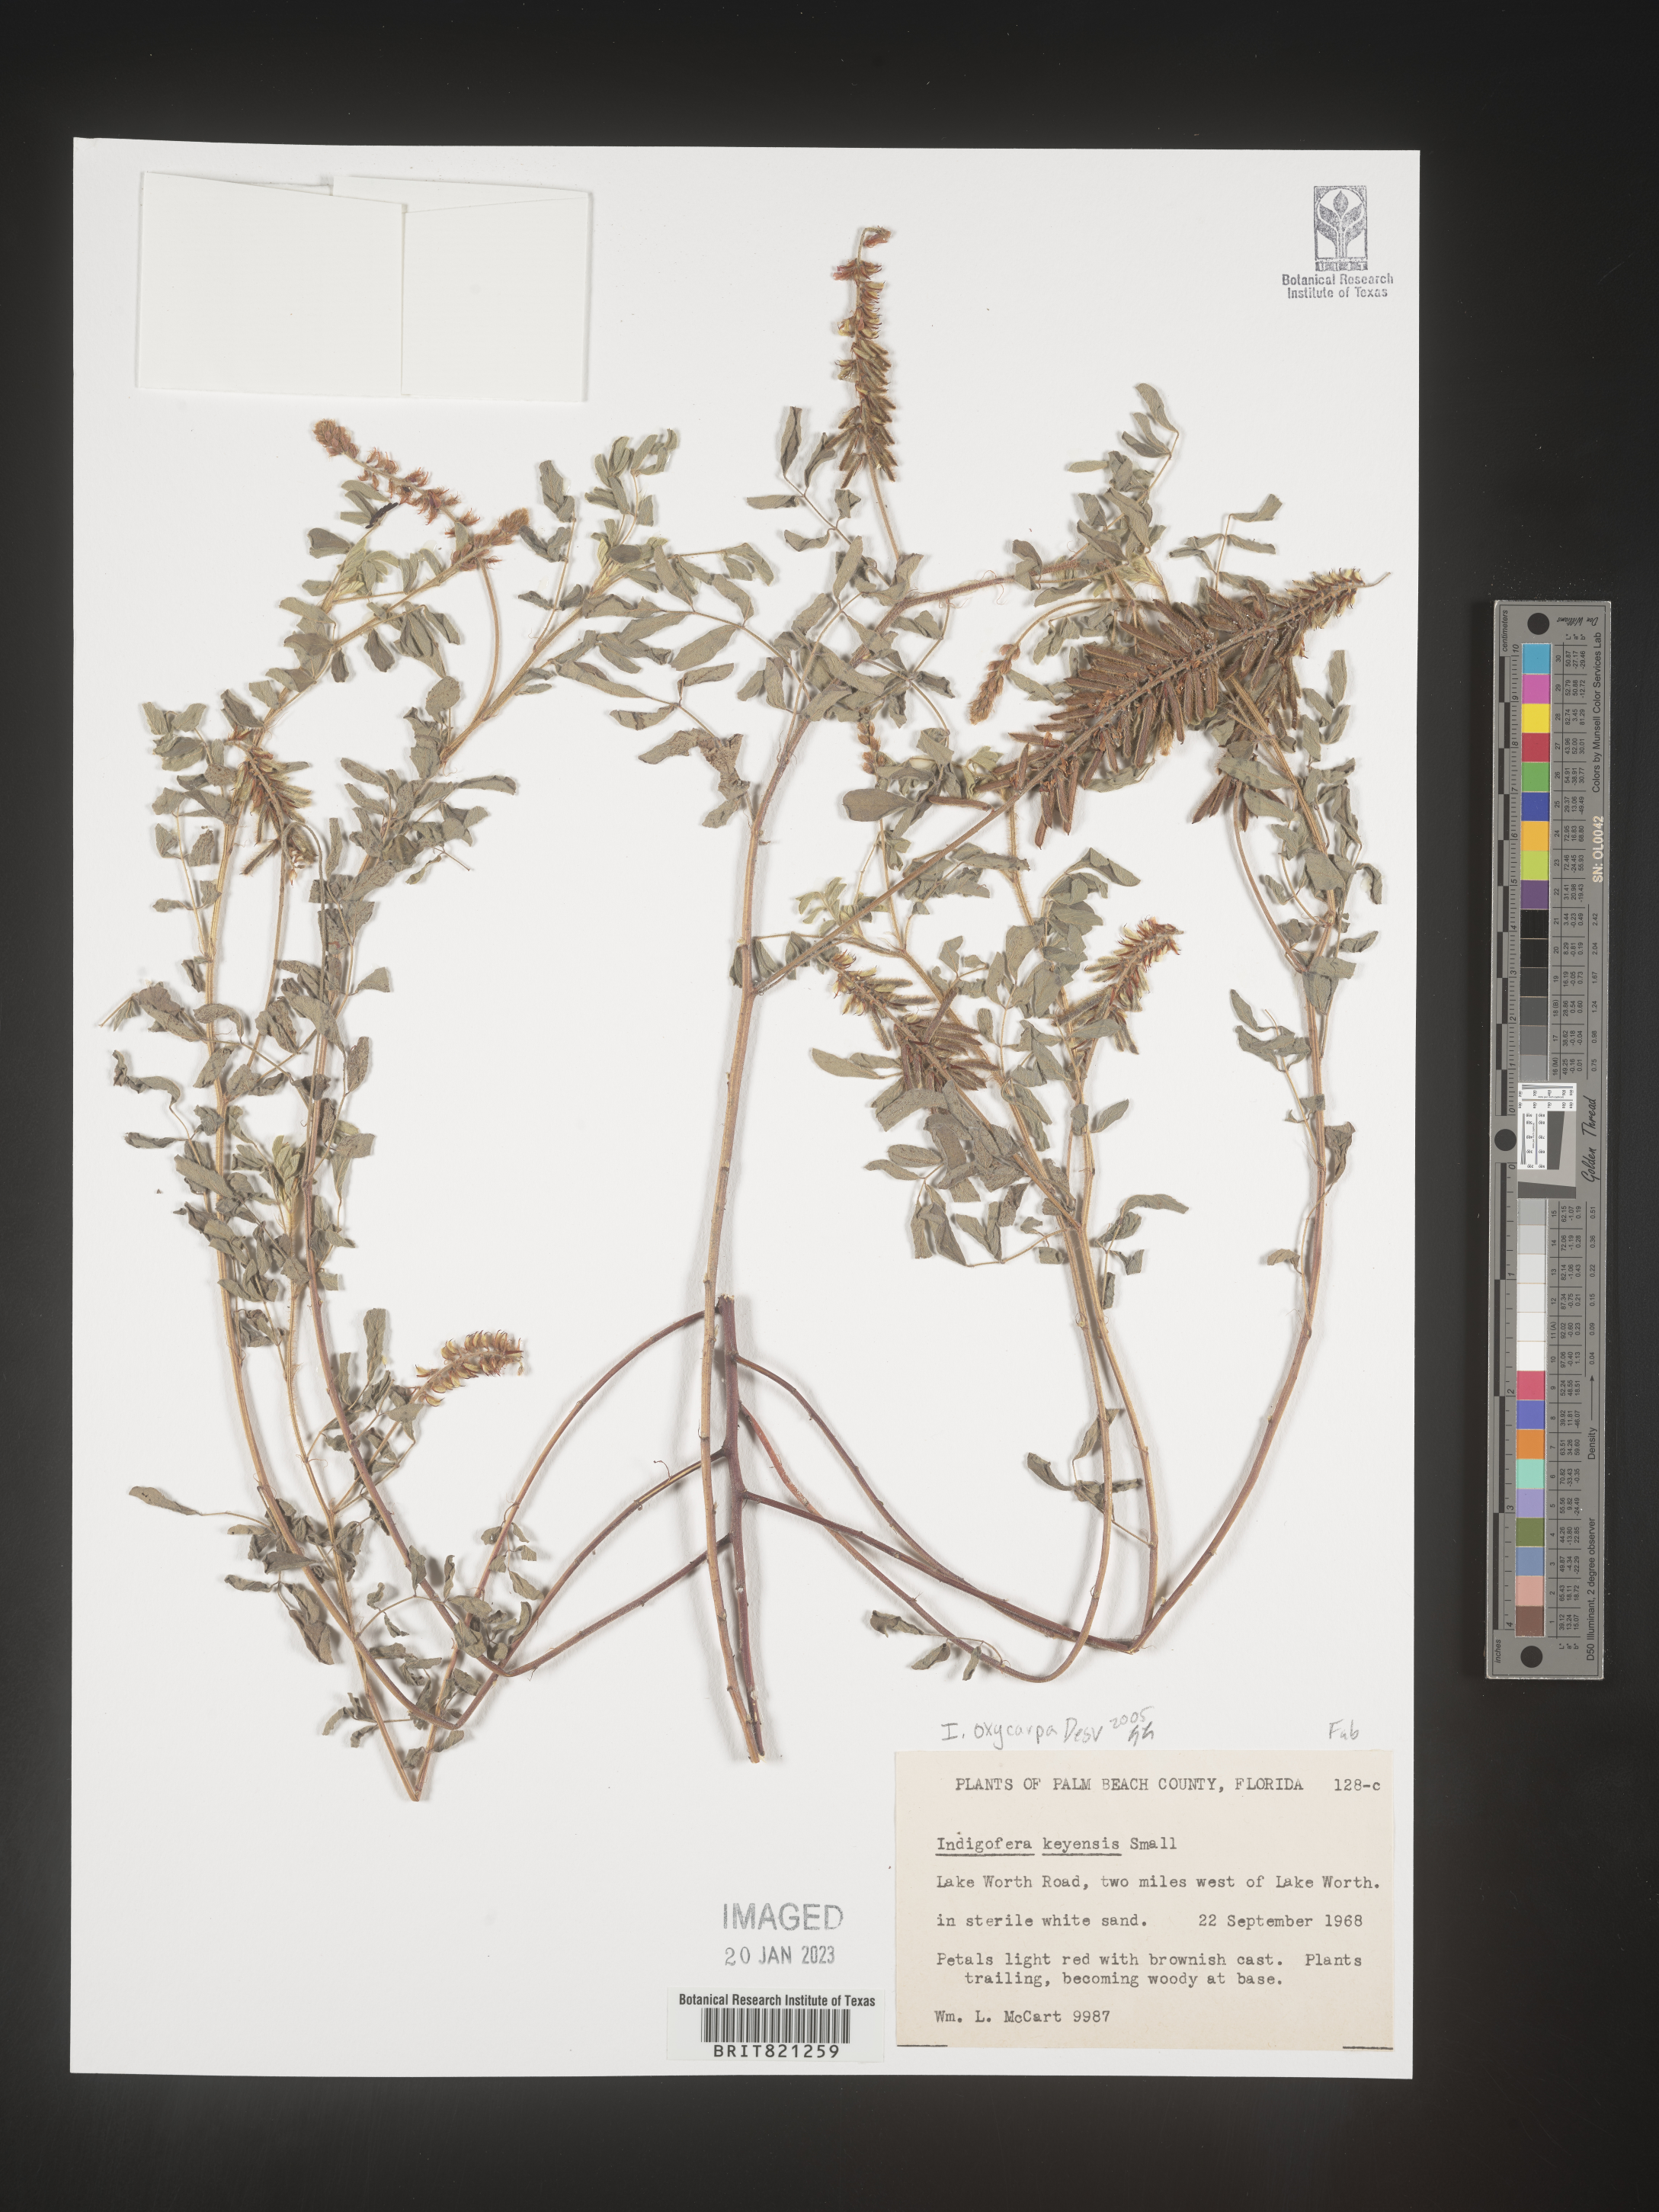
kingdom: Plantae
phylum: Tracheophyta
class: Magnoliopsida
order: Fabales
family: Fabaceae
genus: Indigastrum
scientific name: Indigastrum parviflorum
